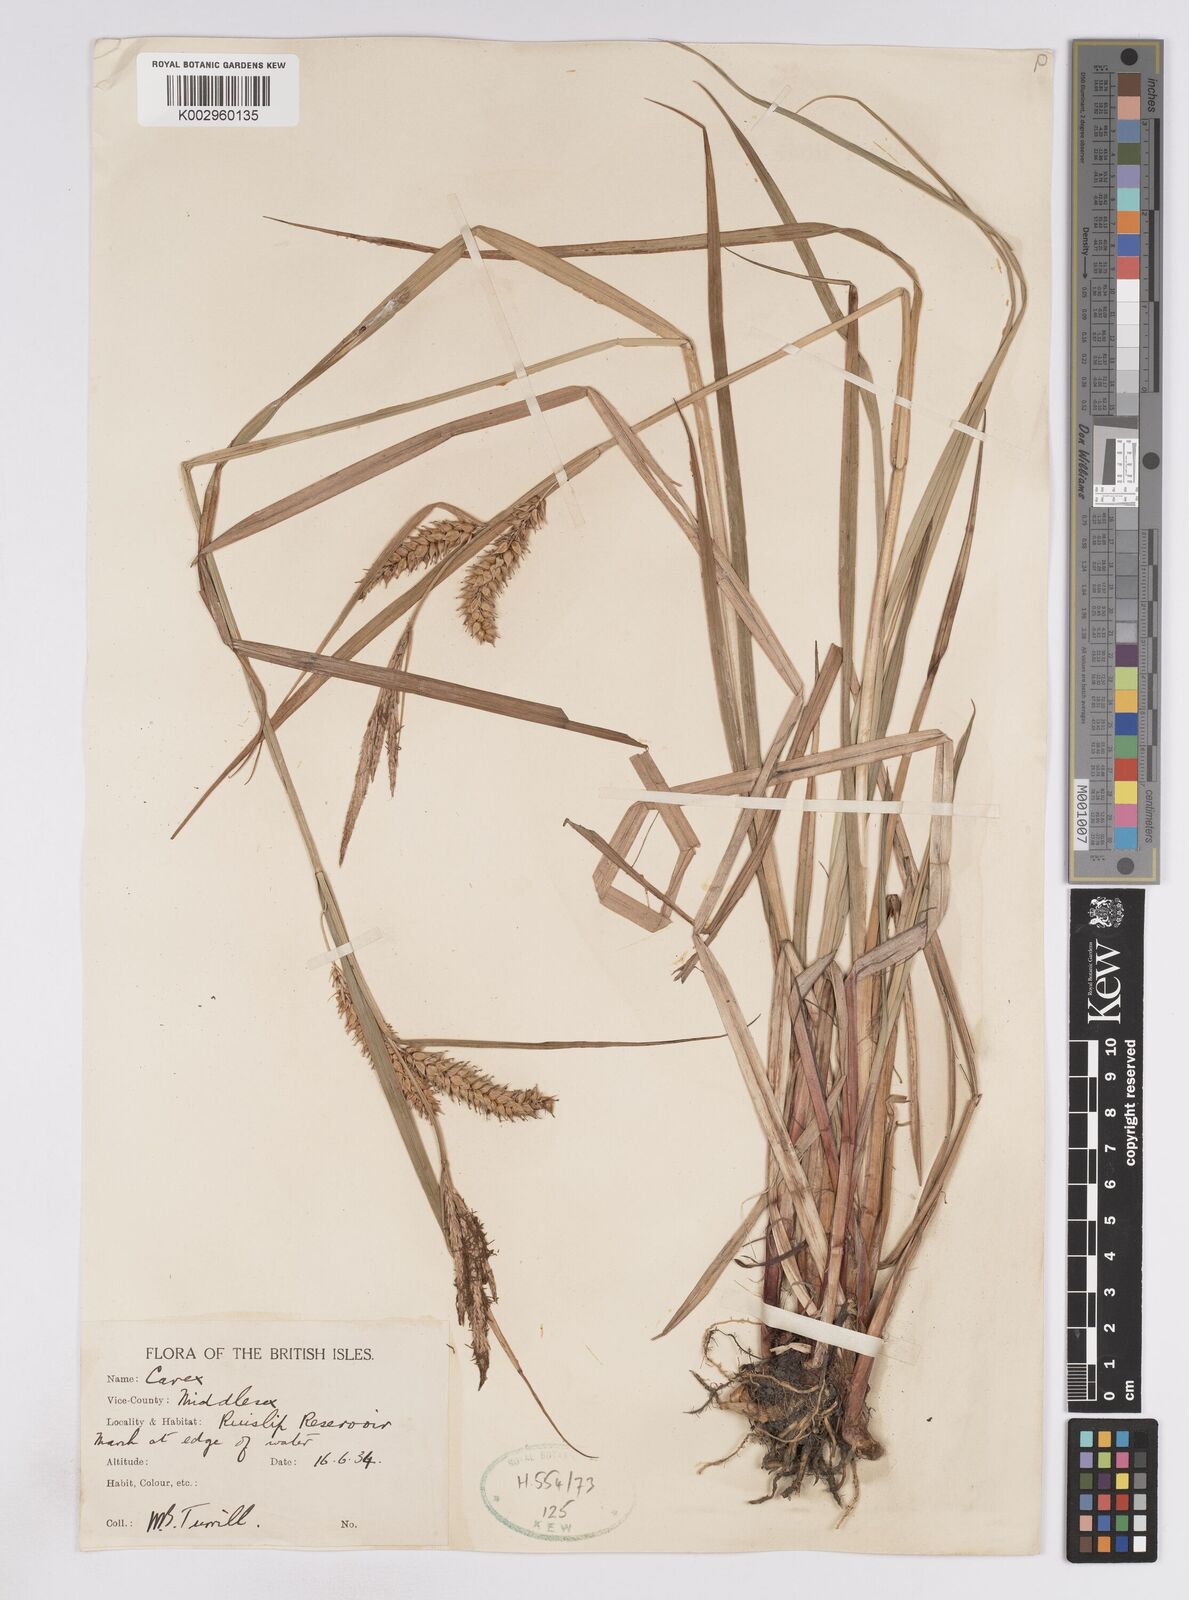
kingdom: Plantae
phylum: Tracheophyta
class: Liliopsida
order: Poales
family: Cyperaceae
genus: Carex
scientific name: Carex vesicaria
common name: Bladder-sedge
